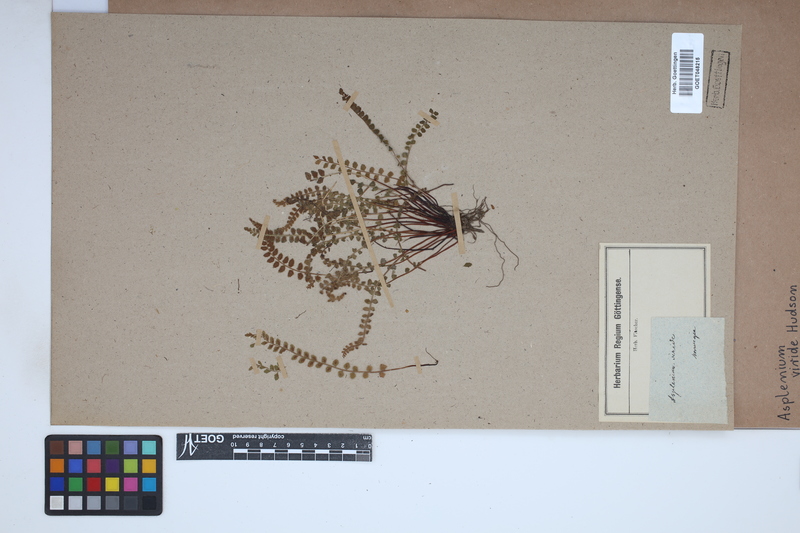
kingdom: Plantae
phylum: Tracheophyta
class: Polypodiopsida
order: Polypodiales
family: Aspleniaceae
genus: Asplenium
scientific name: Asplenium viride
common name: Green spleenwort
